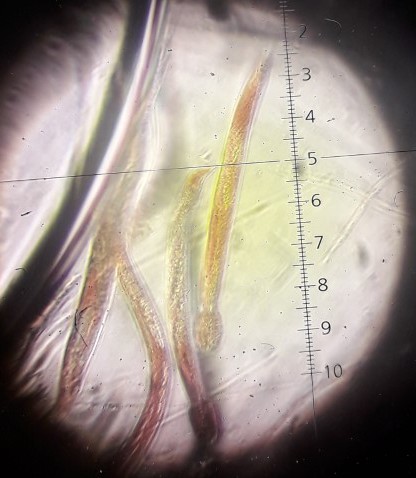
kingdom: Fungi
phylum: Ascomycota
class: Sordariomycetes
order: Xylariales
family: Diatrypaceae
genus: Diatrypella
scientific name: Diatrypella quercina
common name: ege-kulskorpe
